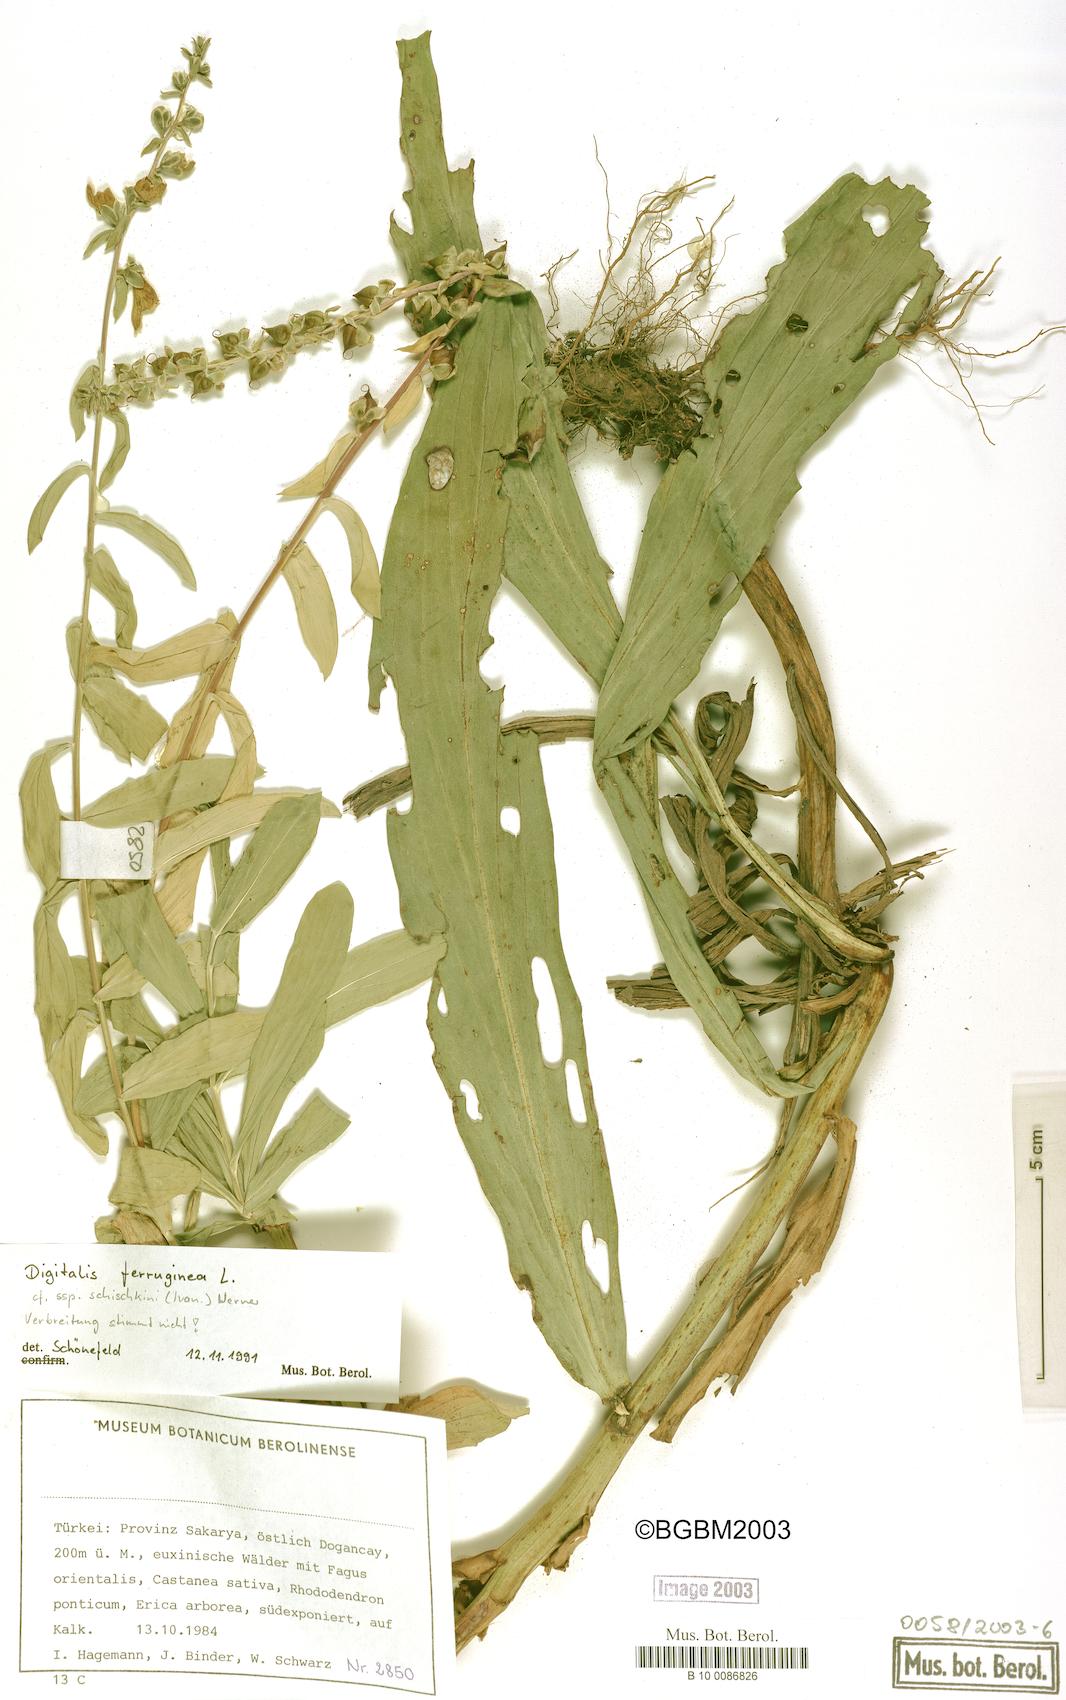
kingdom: Plantae
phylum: Tracheophyta
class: Magnoliopsida
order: Lamiales
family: Plantaginaceae
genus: Digitalis
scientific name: Digitalis ferruginea
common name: Rusty foxglove
